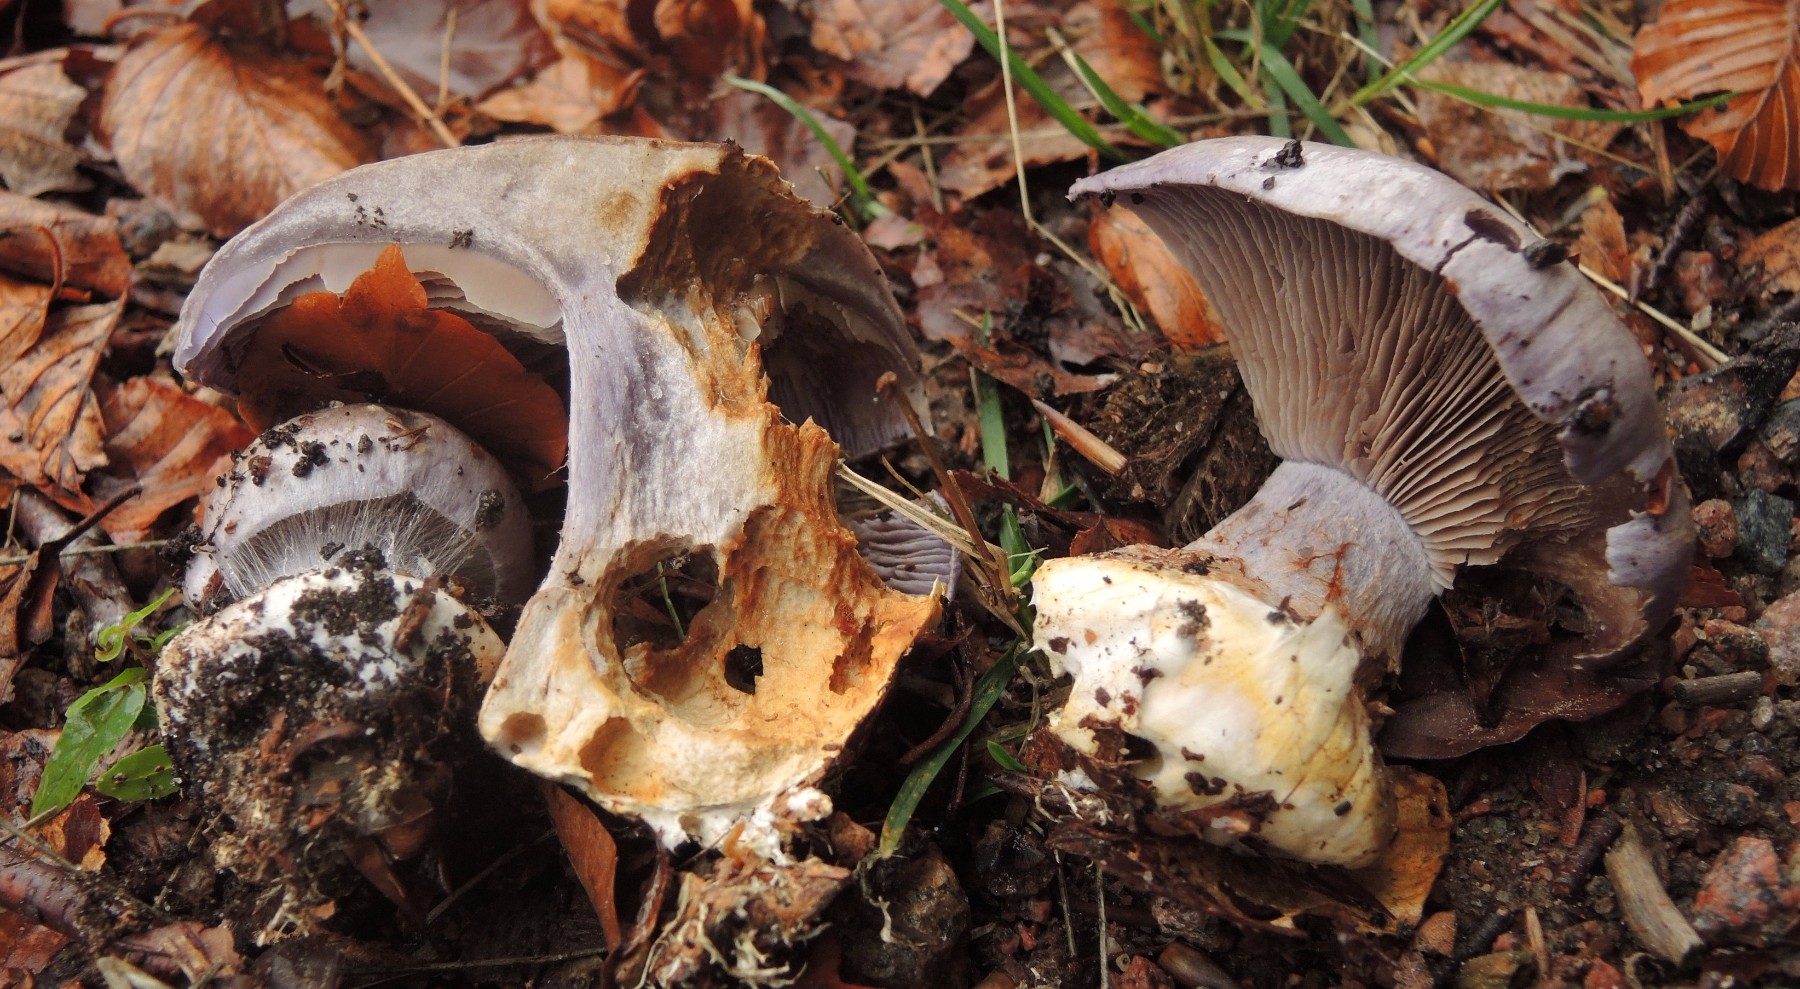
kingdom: Fungi
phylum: Basidiomycota
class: Agaricomycetes
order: Agaricales
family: Cortinariaceae
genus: Cortinarius
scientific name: Cortinarius caerulescens
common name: blåkødet slørhat
